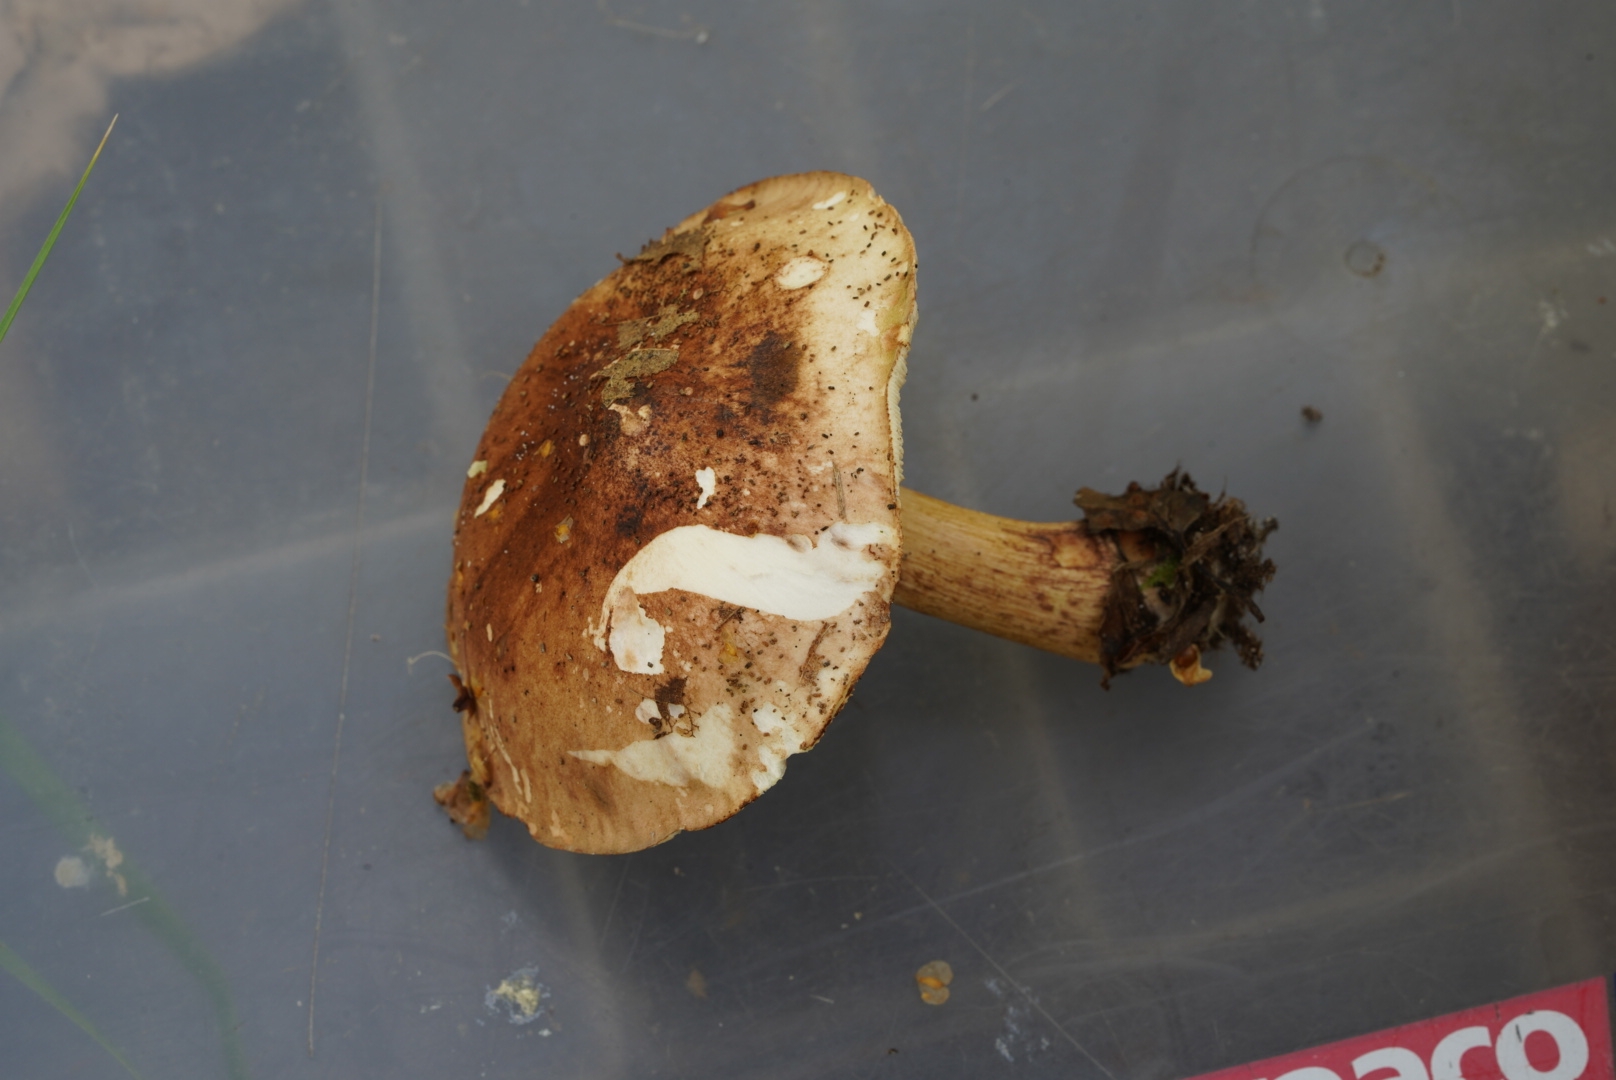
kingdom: Fungi
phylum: Basidiomycota
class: Agaricomycetes
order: Agaricales
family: Tricholomataceae
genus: Tricholoma
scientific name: Tricholoma fulvum
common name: birke-ridderhat
